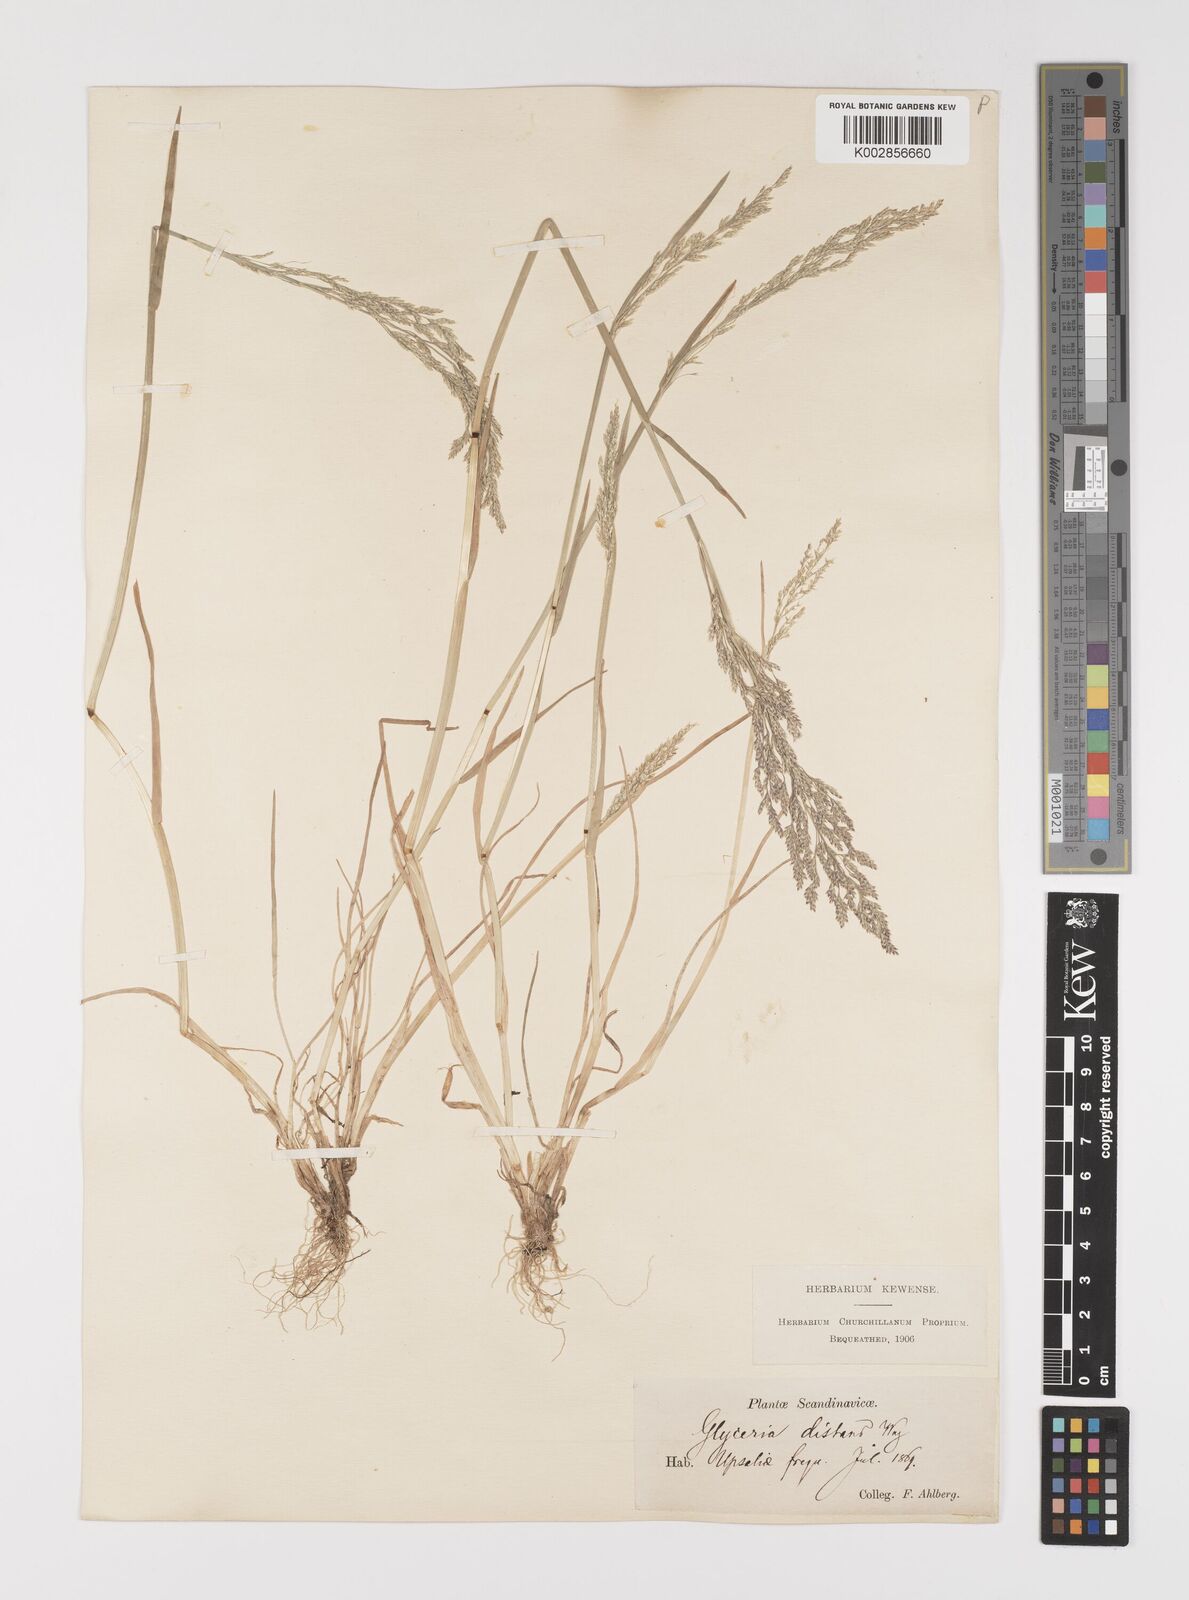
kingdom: Plantae
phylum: Tracheophyta
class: Liliopsida
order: Poales
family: Poaceae
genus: Puccinellia
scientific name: Puccinellia
